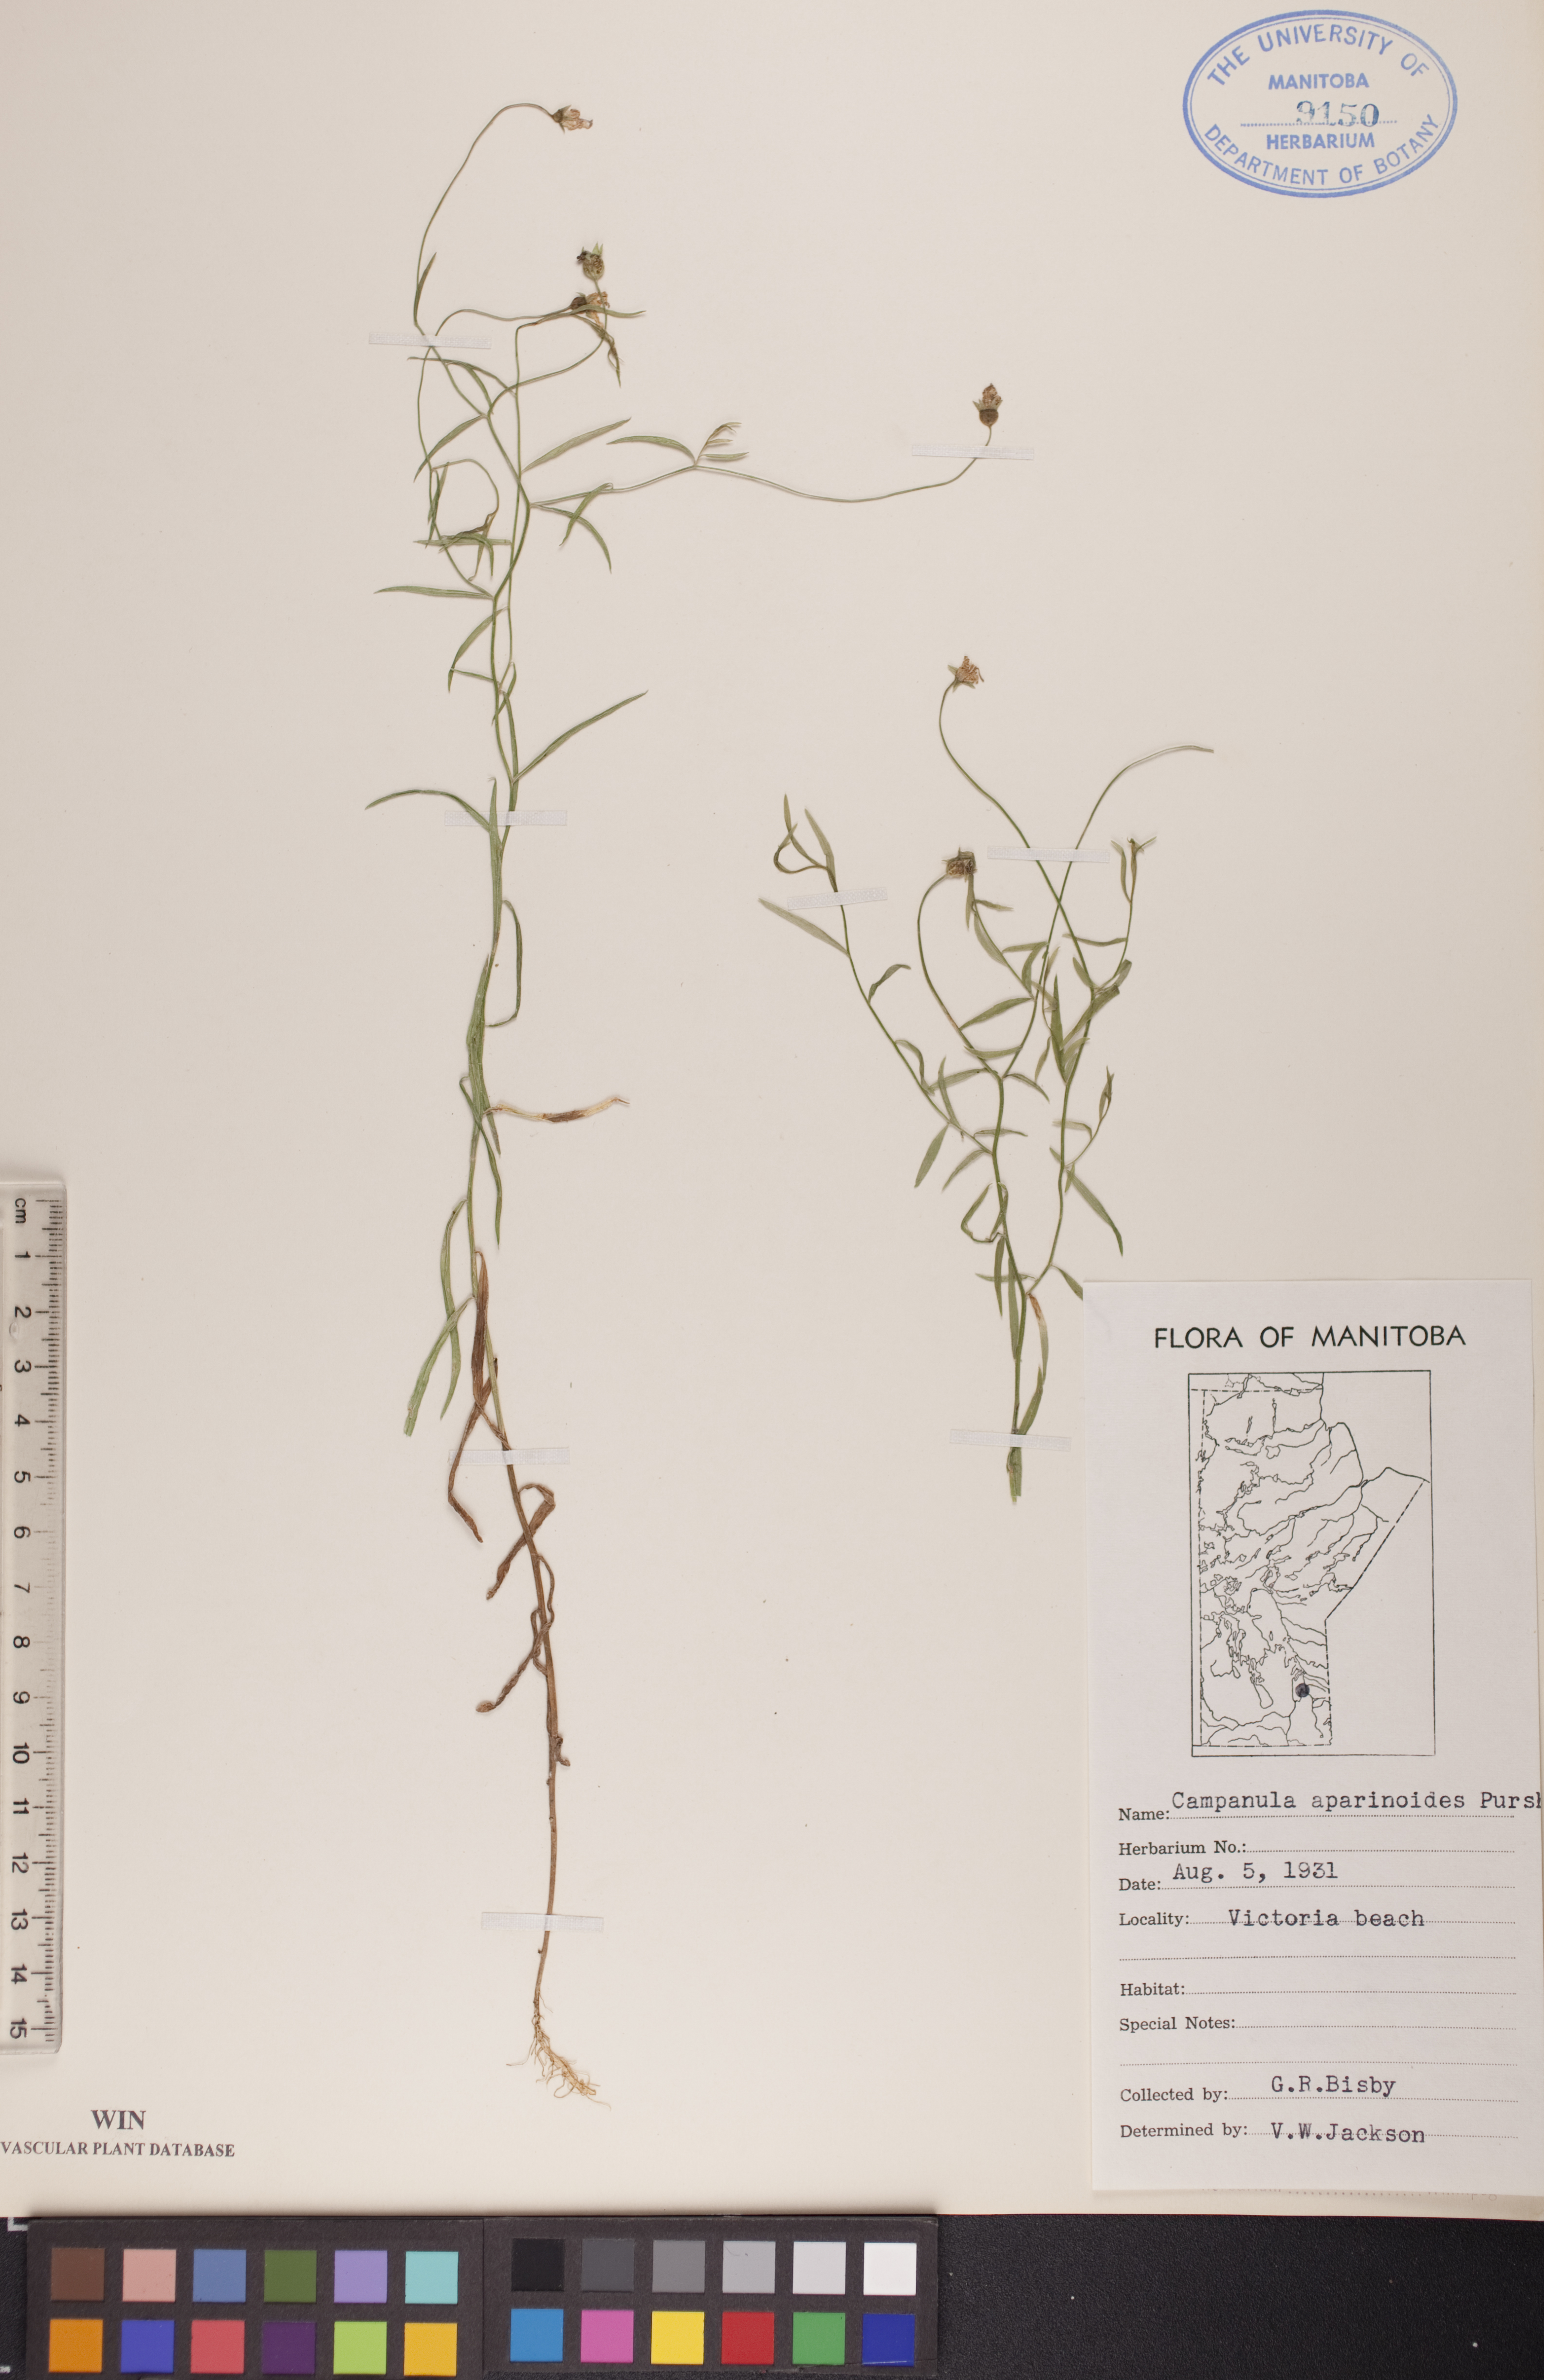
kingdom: Plantae
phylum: Tracheophyta
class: Magnoliopsida
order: Asterales
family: Campanulaceae
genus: Palustricodon
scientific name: Palustricodon aparinoides
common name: Bedstraw bellflower
